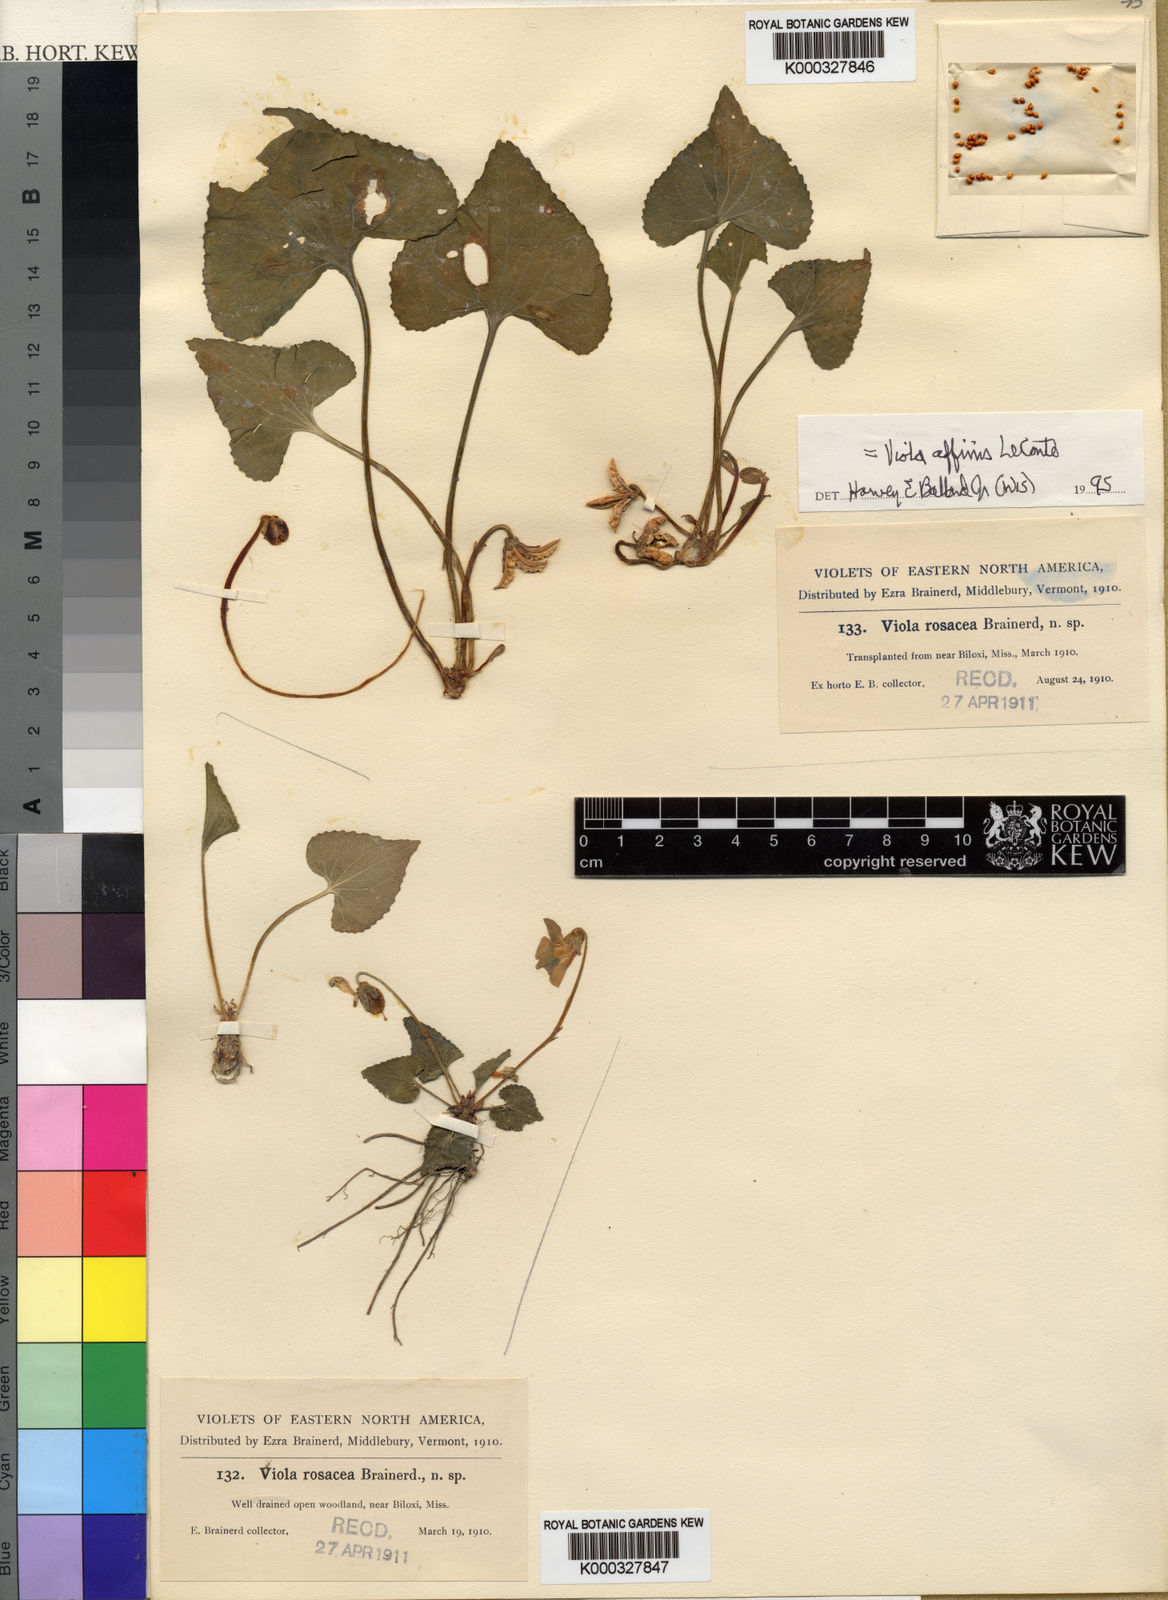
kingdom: Plantae
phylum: Tracheophyta
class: Magnoliopsida
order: Malpighiales
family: Violaceae
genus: Viola
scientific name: Viola rosacea
